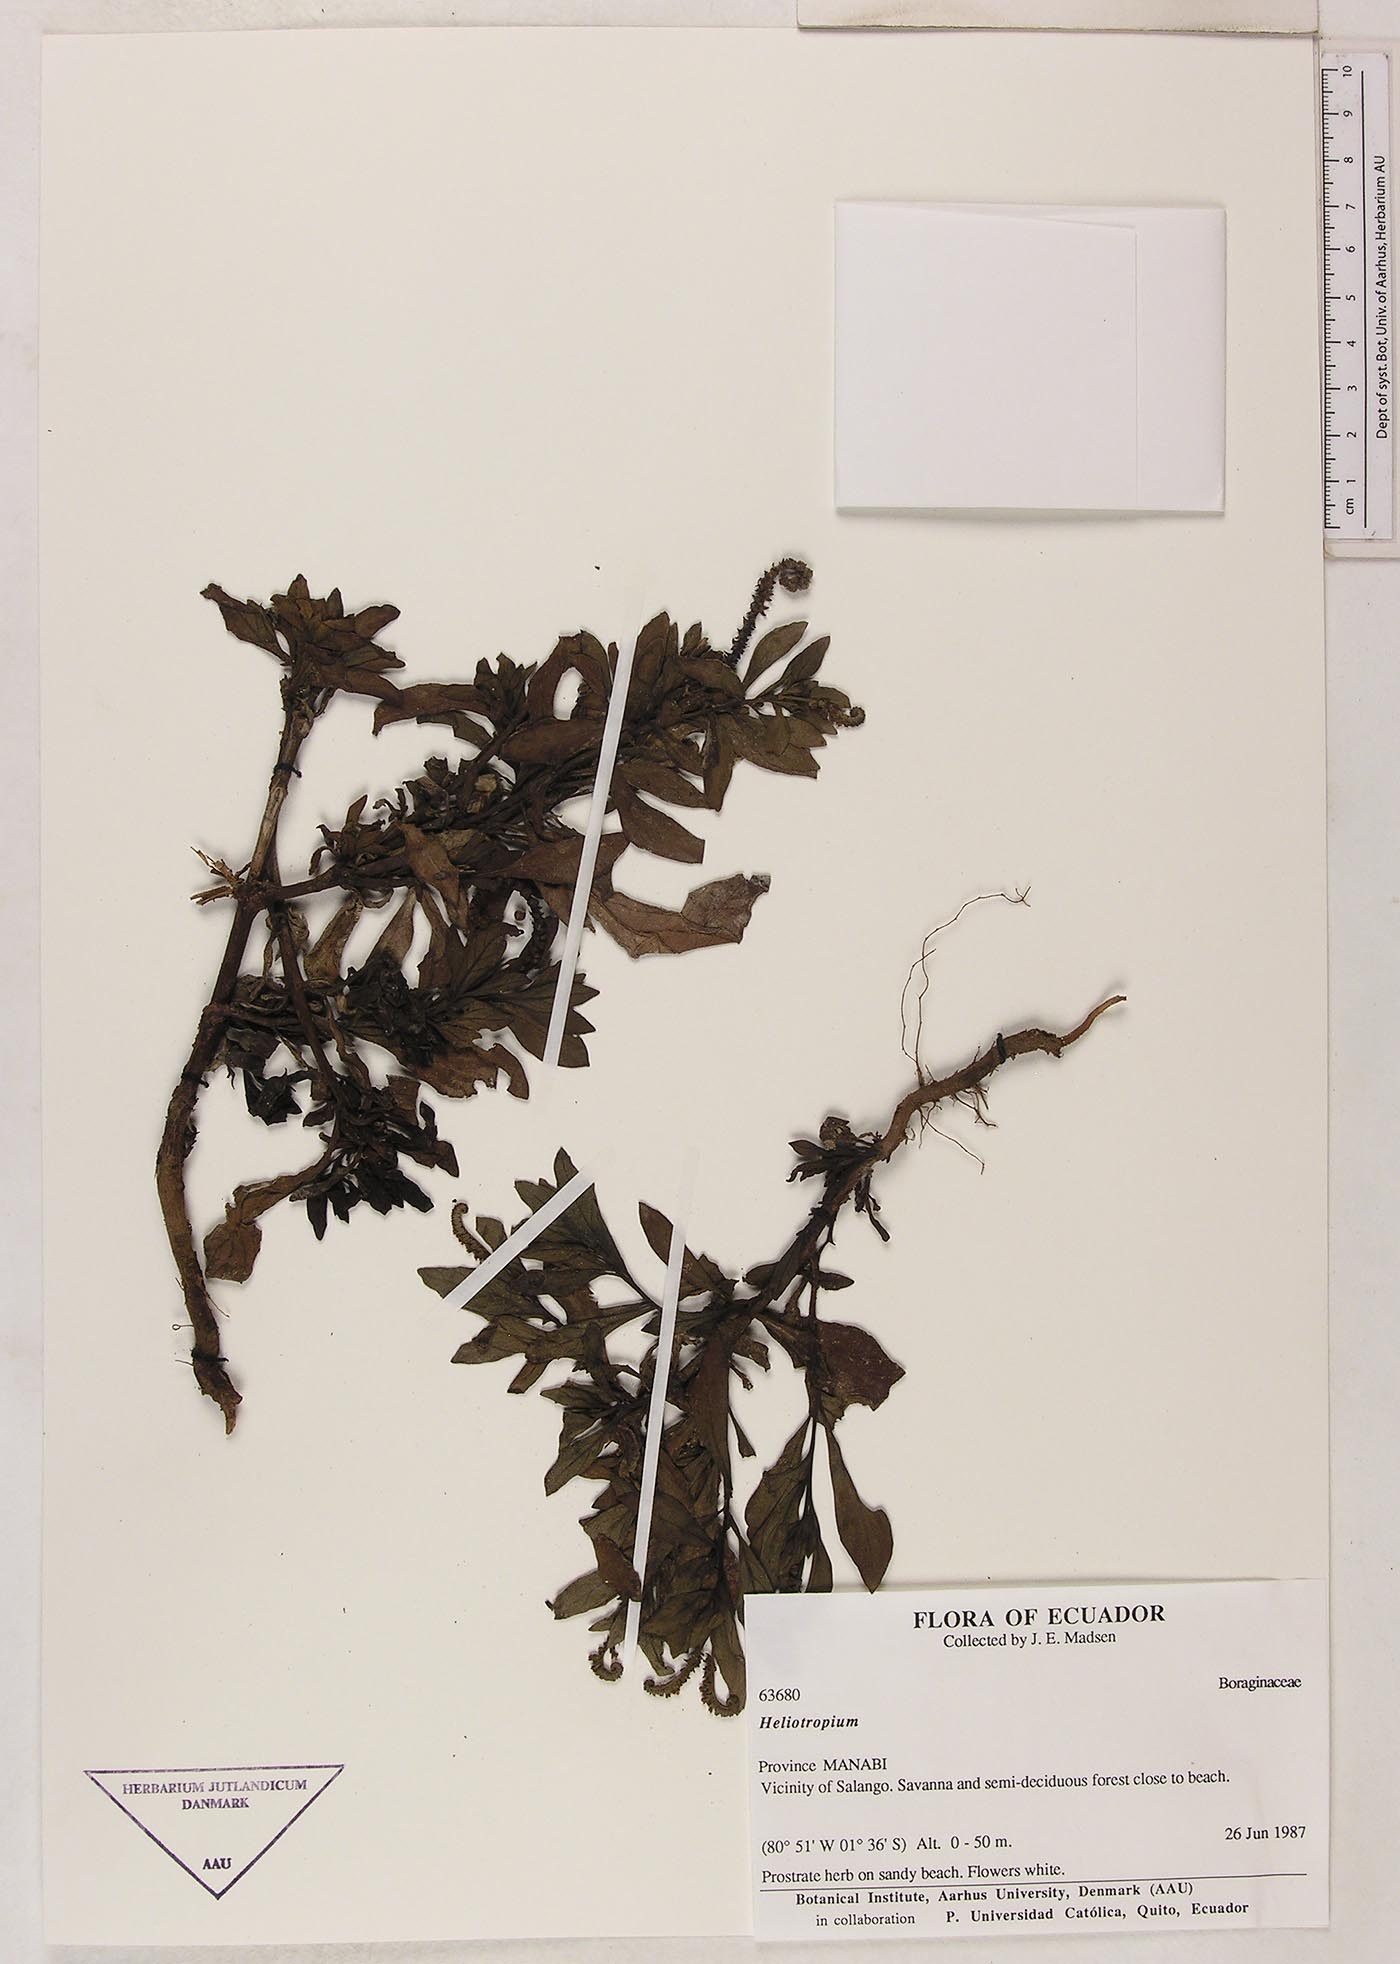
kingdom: Plantae
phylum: Tracheophyta
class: Magnoliopsida
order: Boraginales
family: Heliotropiaceae
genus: Heliotropium
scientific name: Heliotropium curassavicum
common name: Seaside heliotrope
